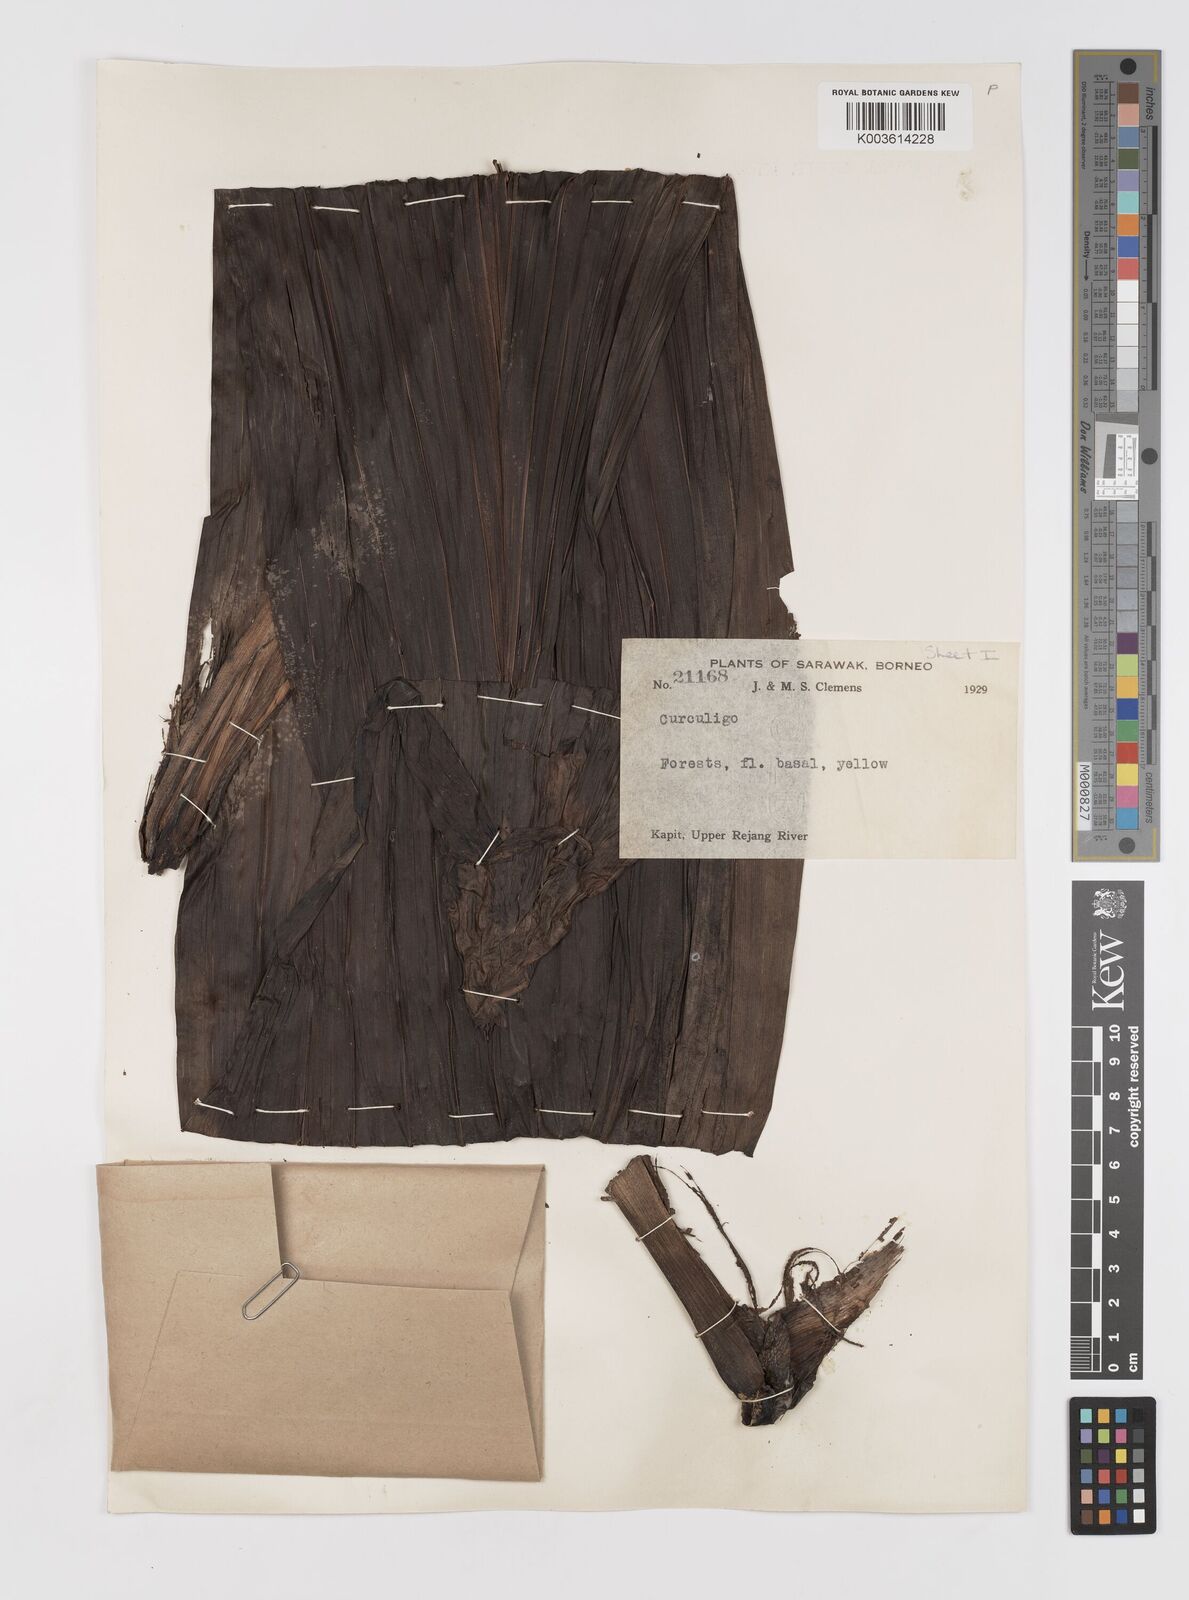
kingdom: Plantae
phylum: Tracheophyta
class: Liliopsida
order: Asparagales
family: Hypoxidaceae
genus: Curculigo
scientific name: Curculigo
